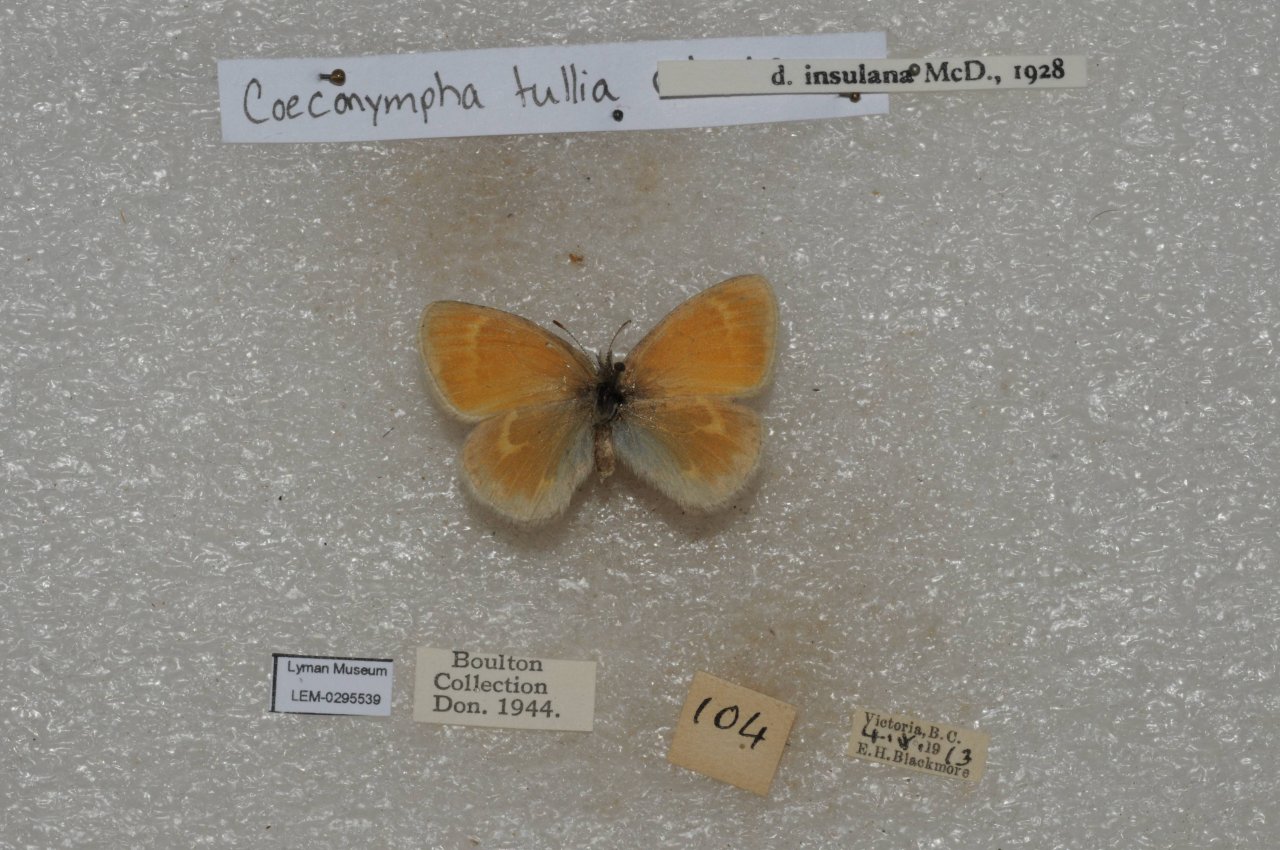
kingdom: Animalia
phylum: Arthropoda
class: Insecta
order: Lepidoptera
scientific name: Lepidoptera
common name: Butterflies
